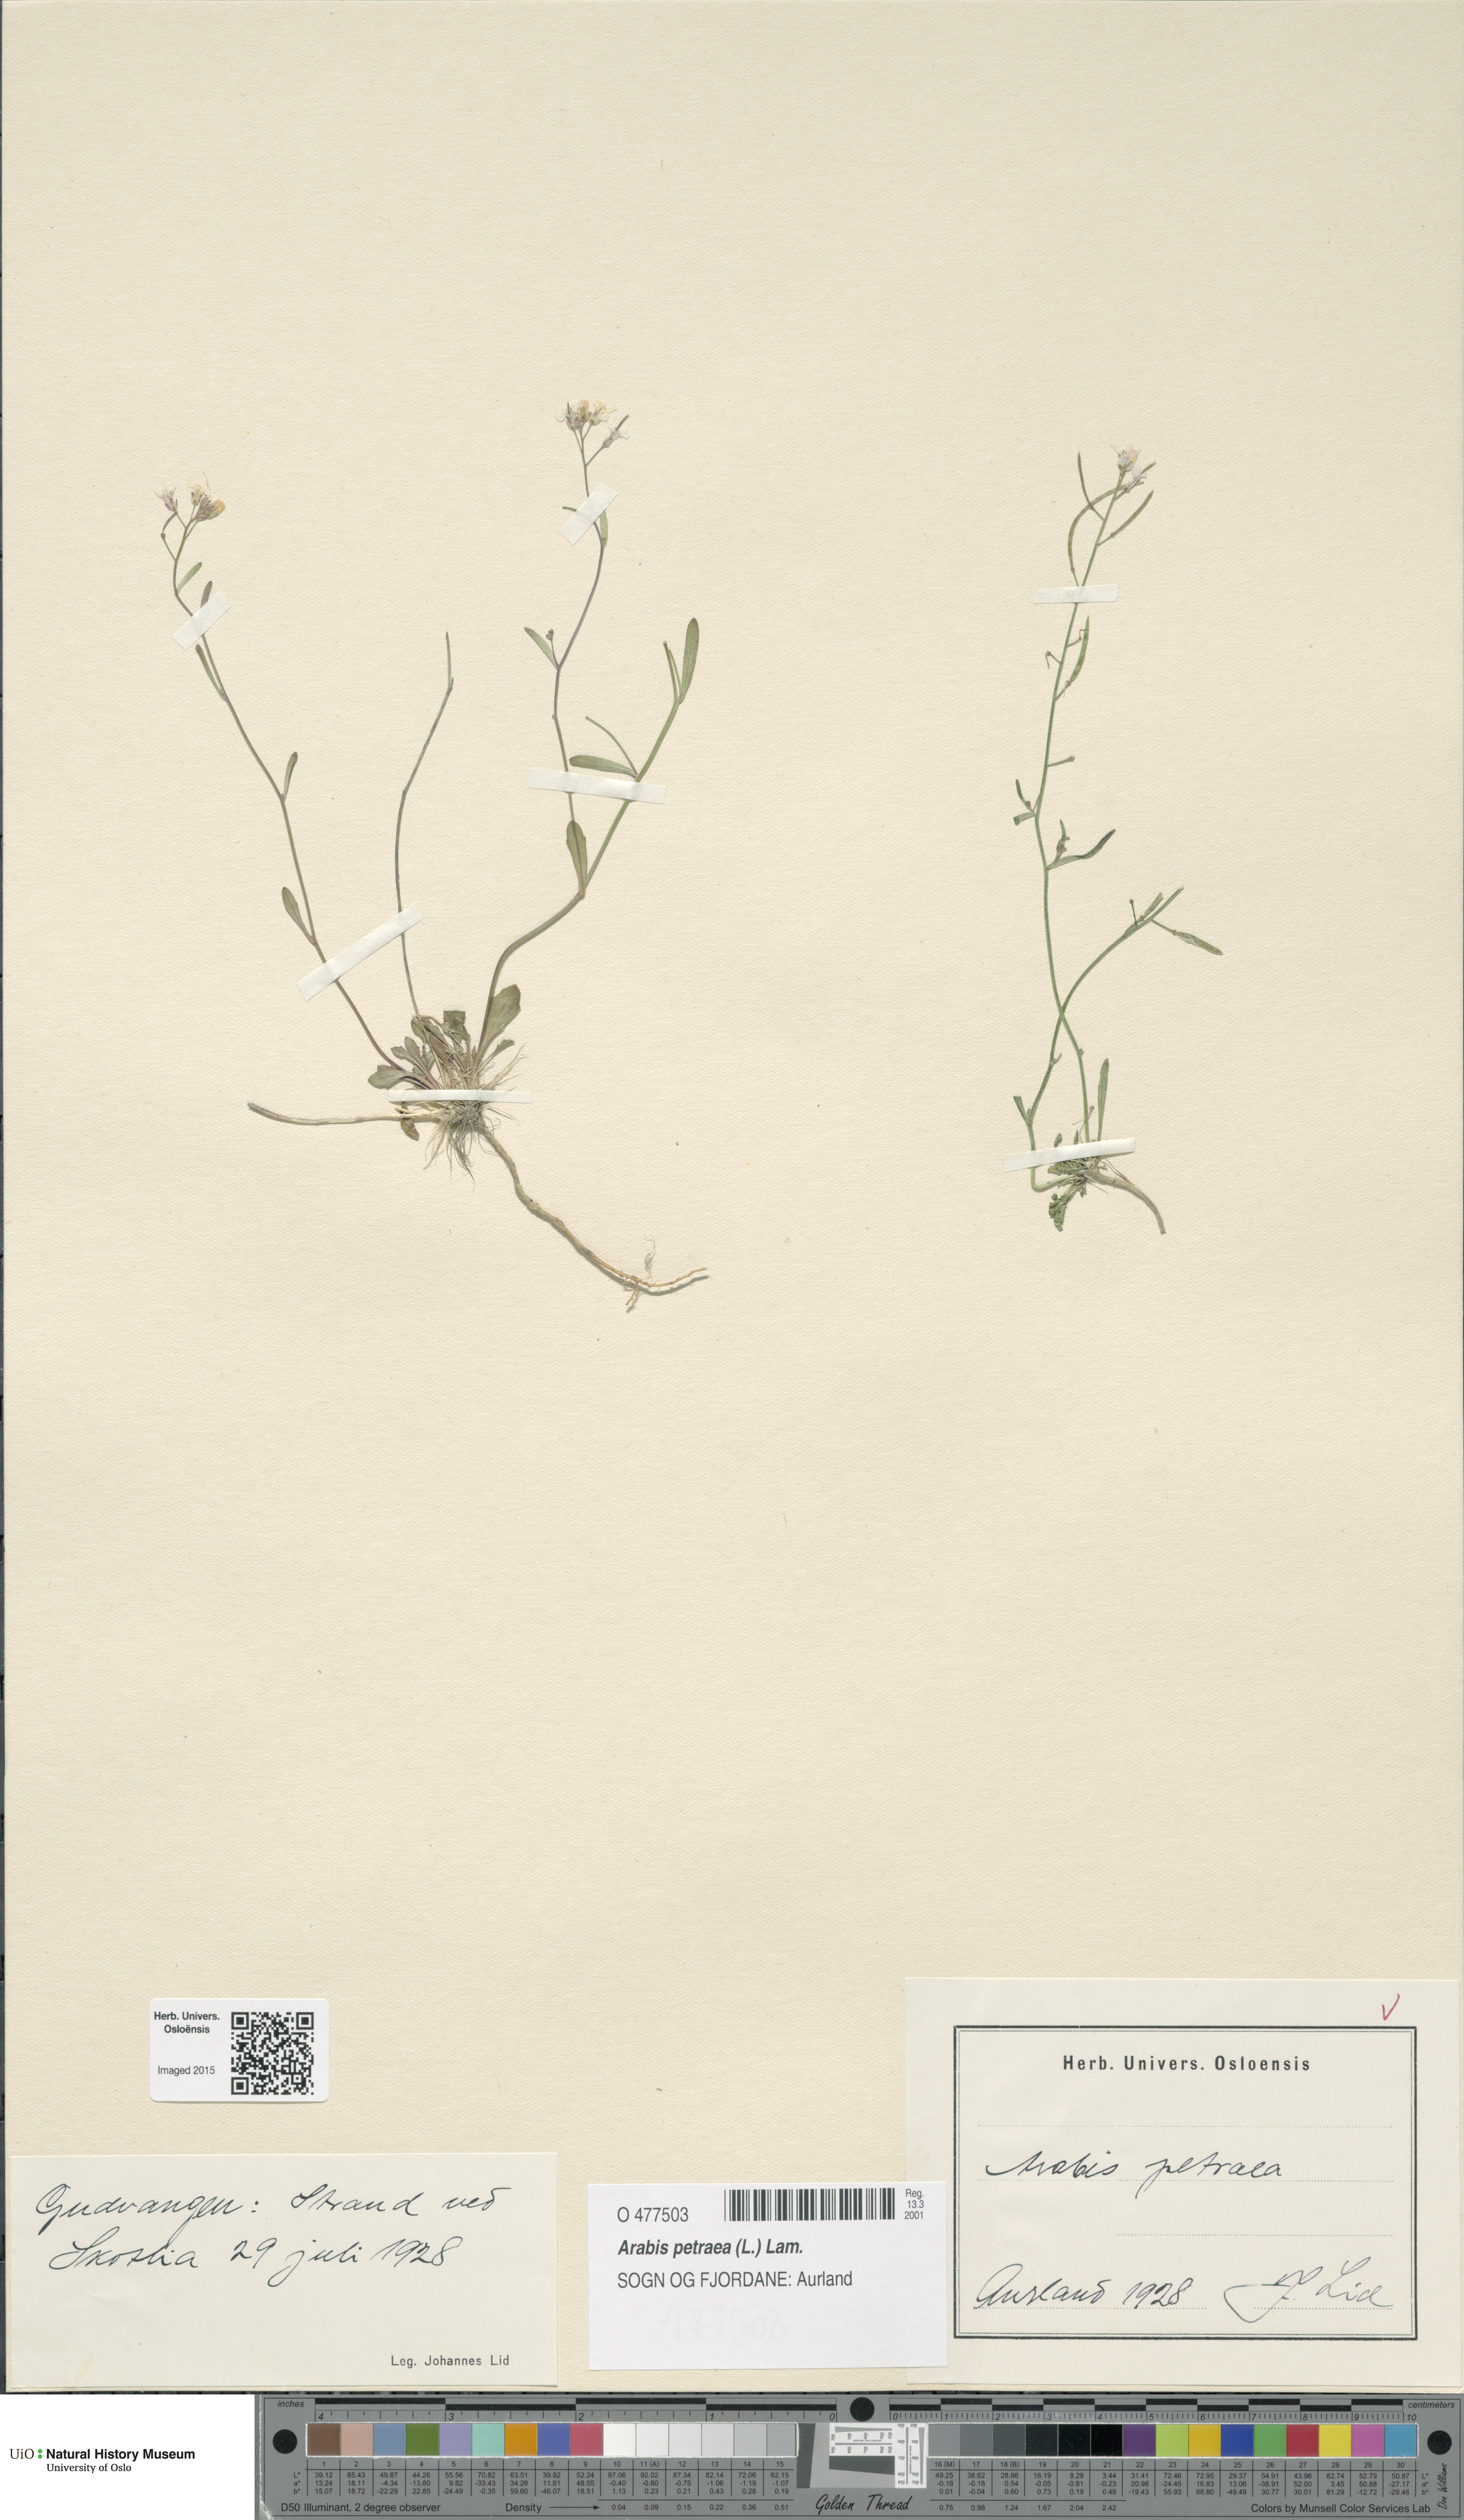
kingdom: Plantae
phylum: Tracheophyta
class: Magnoliopsida
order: Brassicales
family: Brassicaceae
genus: Arabidopsis
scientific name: Arabidopsis petraea
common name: Northern rock-cress
